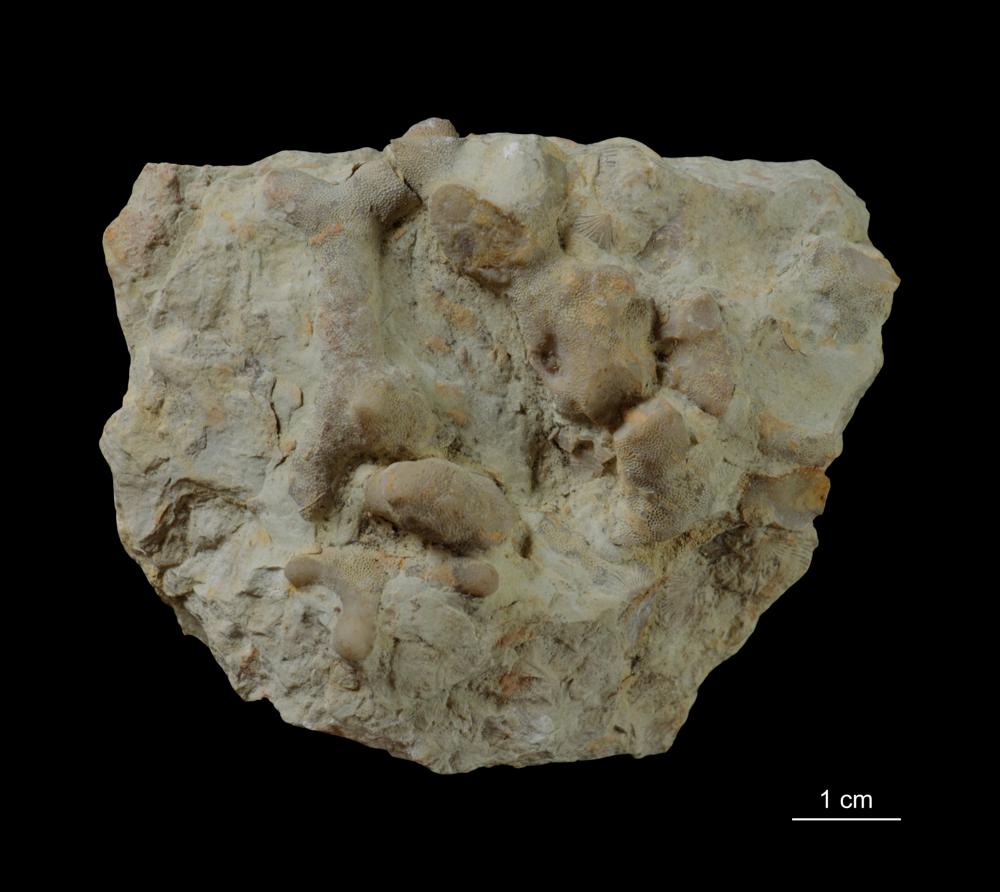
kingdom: Animalia
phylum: Bryozoa
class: Stenolaemata
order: Trepostomatida
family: Halloporidae
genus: Parvohallopora
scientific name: Parvohallopora wesenbergiana
